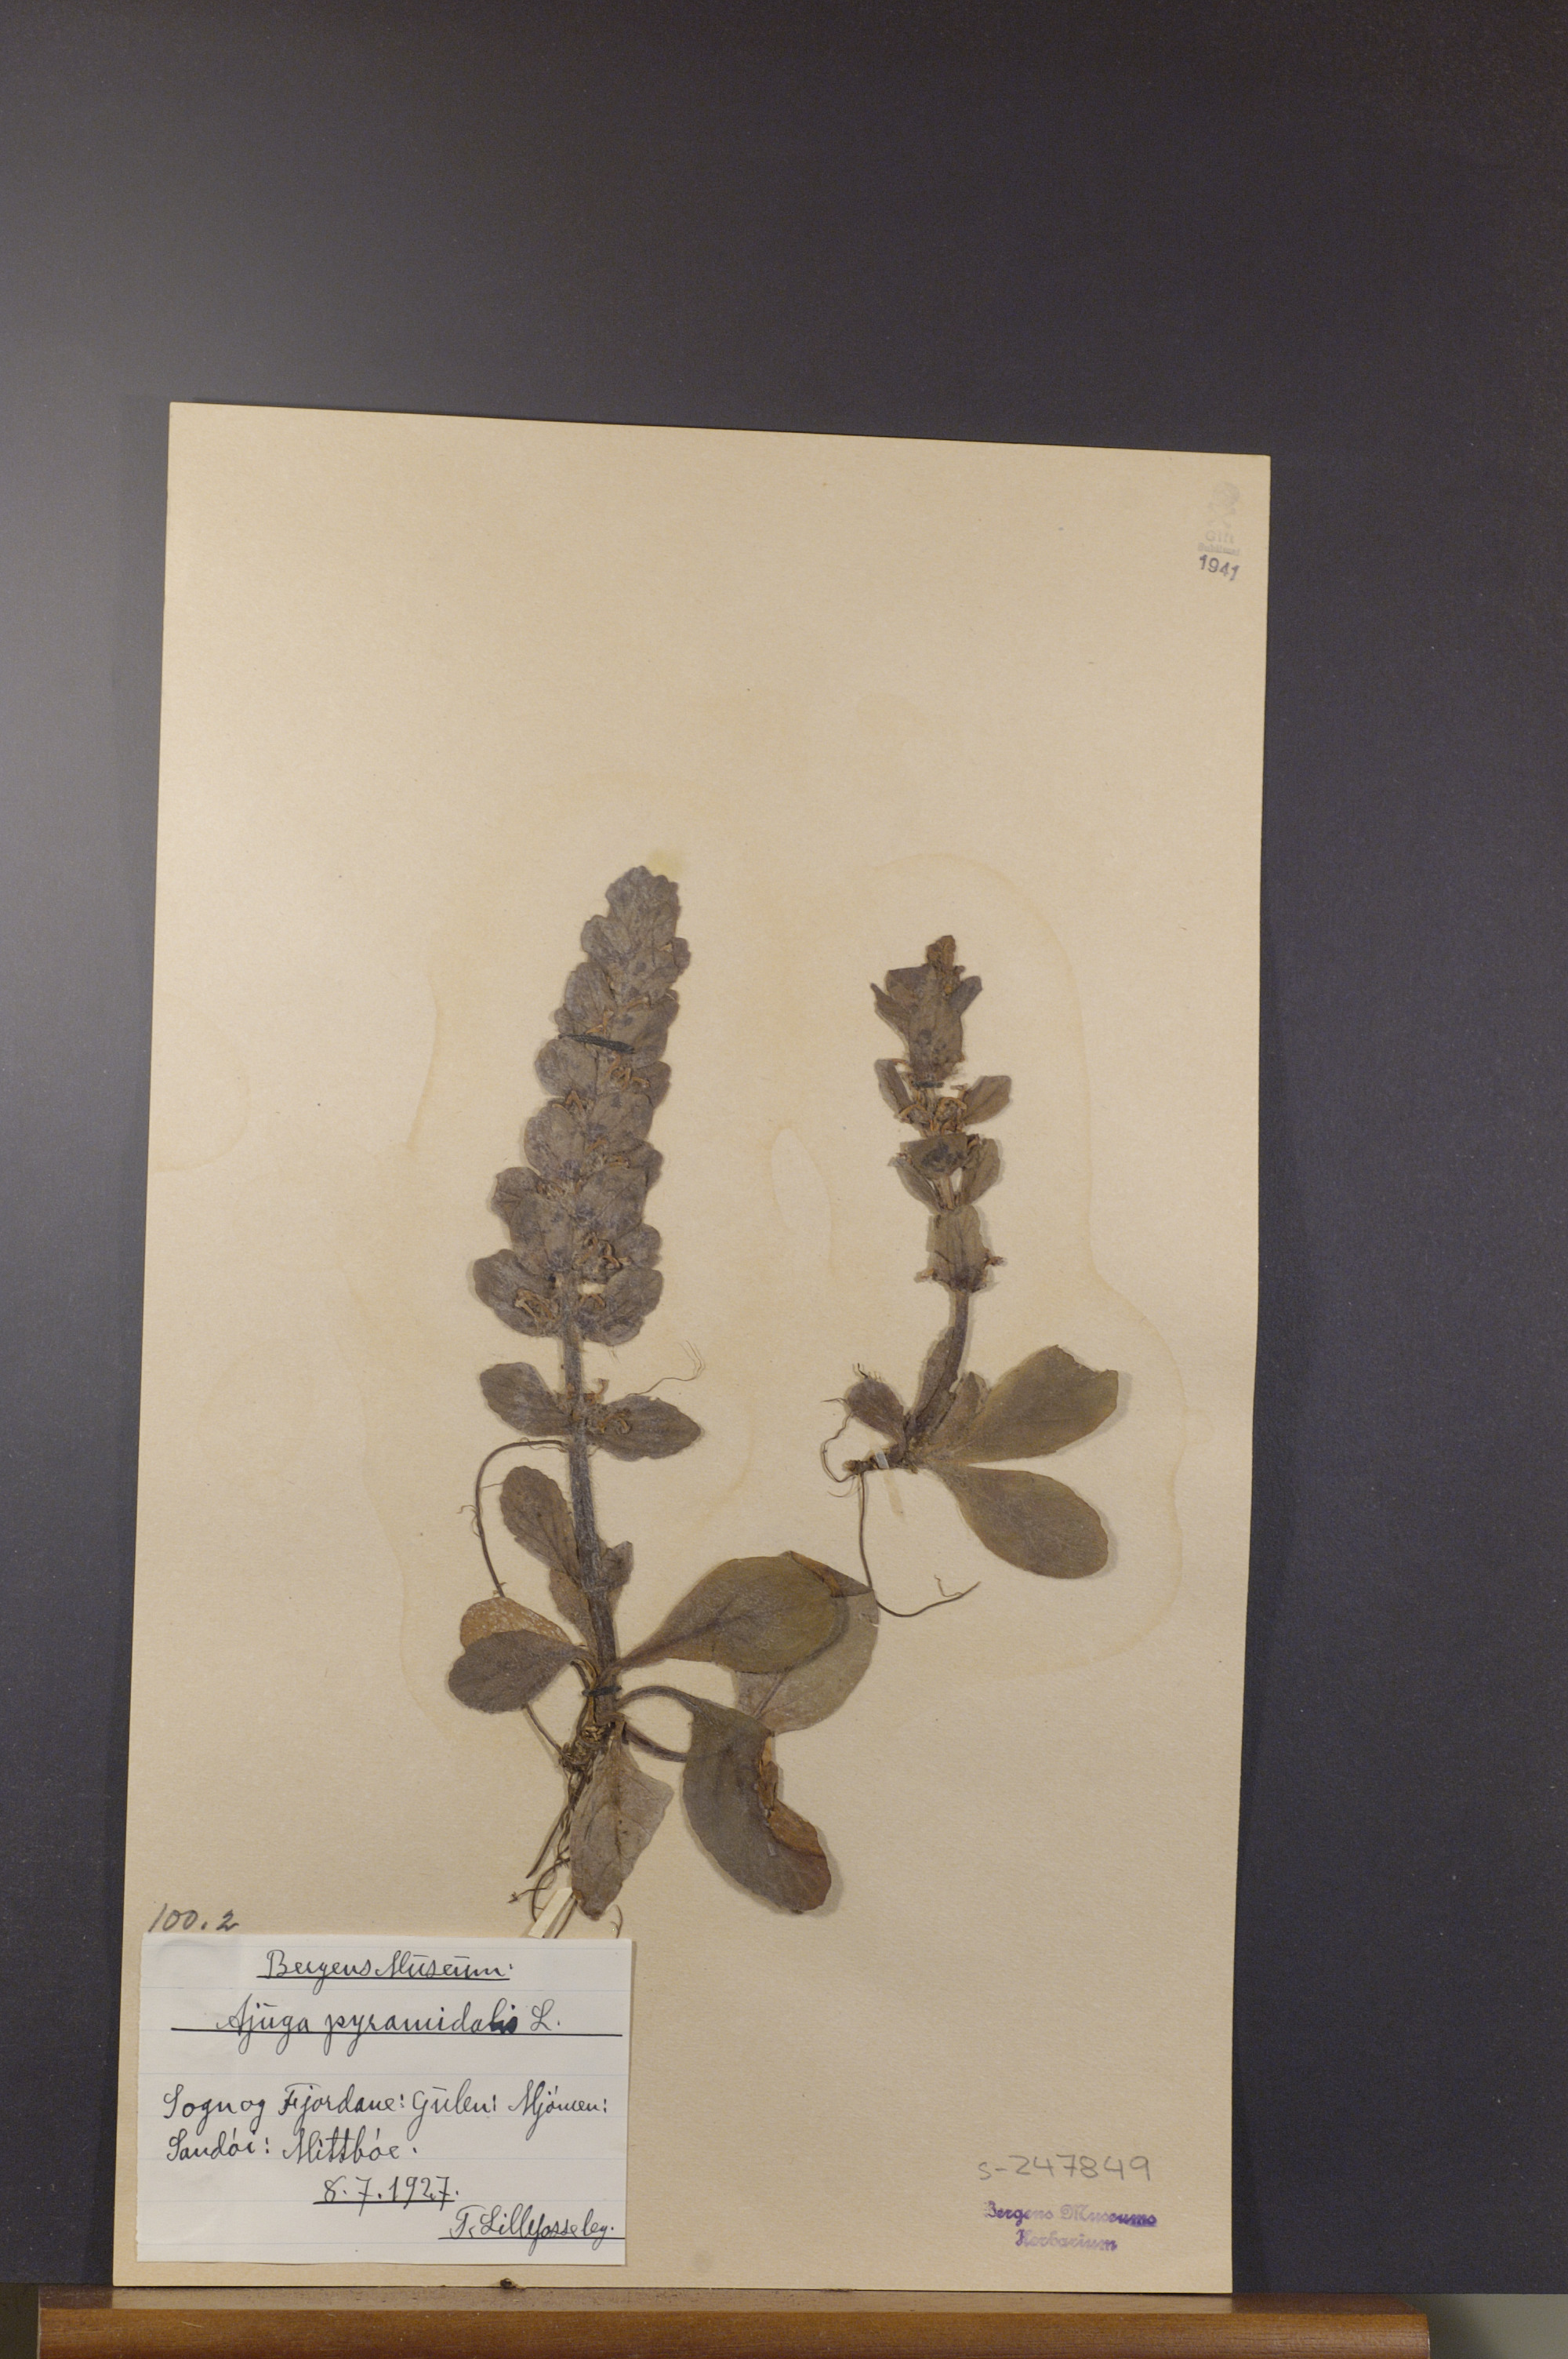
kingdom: Plantae
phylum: Tracheophyta
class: Magnoliopsida
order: Lamiales
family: Lamiaceae
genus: Ajuga
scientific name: Ajuga pyramidalis
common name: Pyramid bugle
